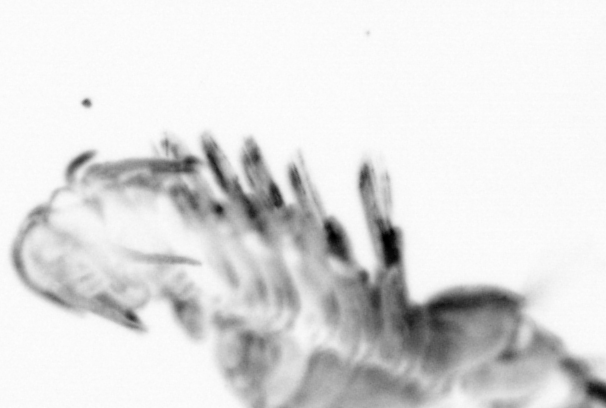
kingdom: Animalia
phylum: Annelida
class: Polychaeta
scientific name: Polychaeta
